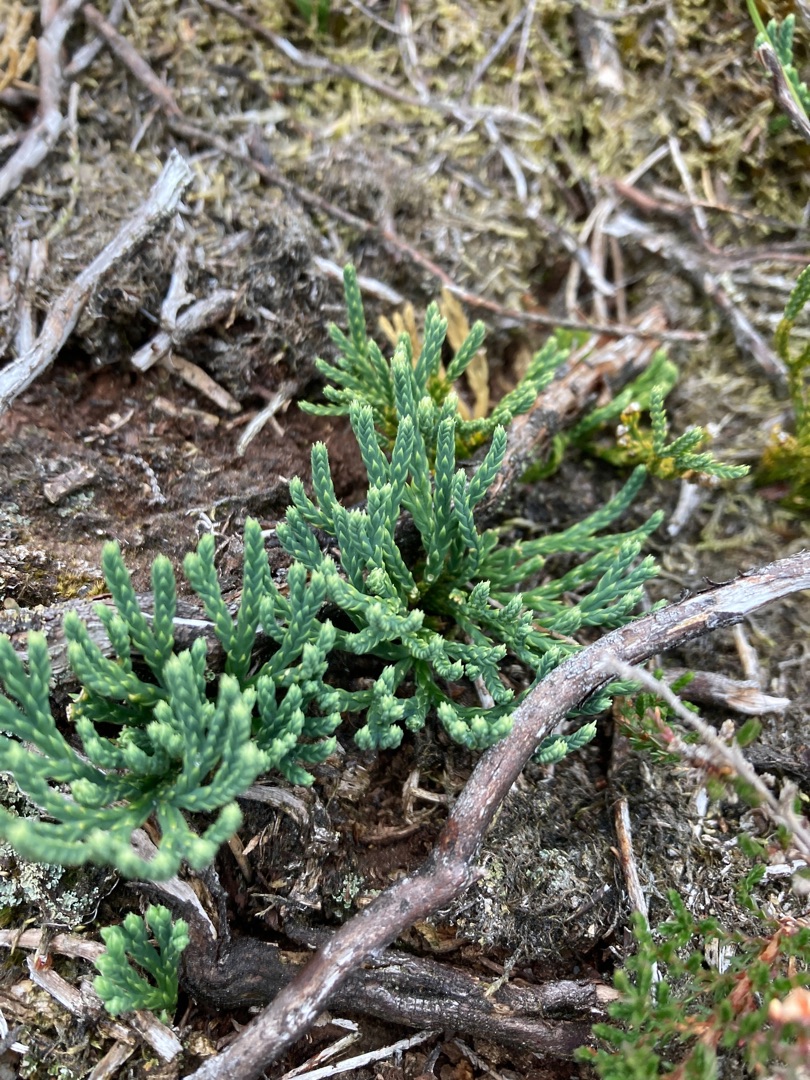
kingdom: Plantae
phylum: Tracheophyta
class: Lycopodiopsida
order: Lycopodiales
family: Lycopodiaceae
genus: Diphasiastrum
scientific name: Diphasiastrum tristachyum
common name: Cypres-ulvefod
